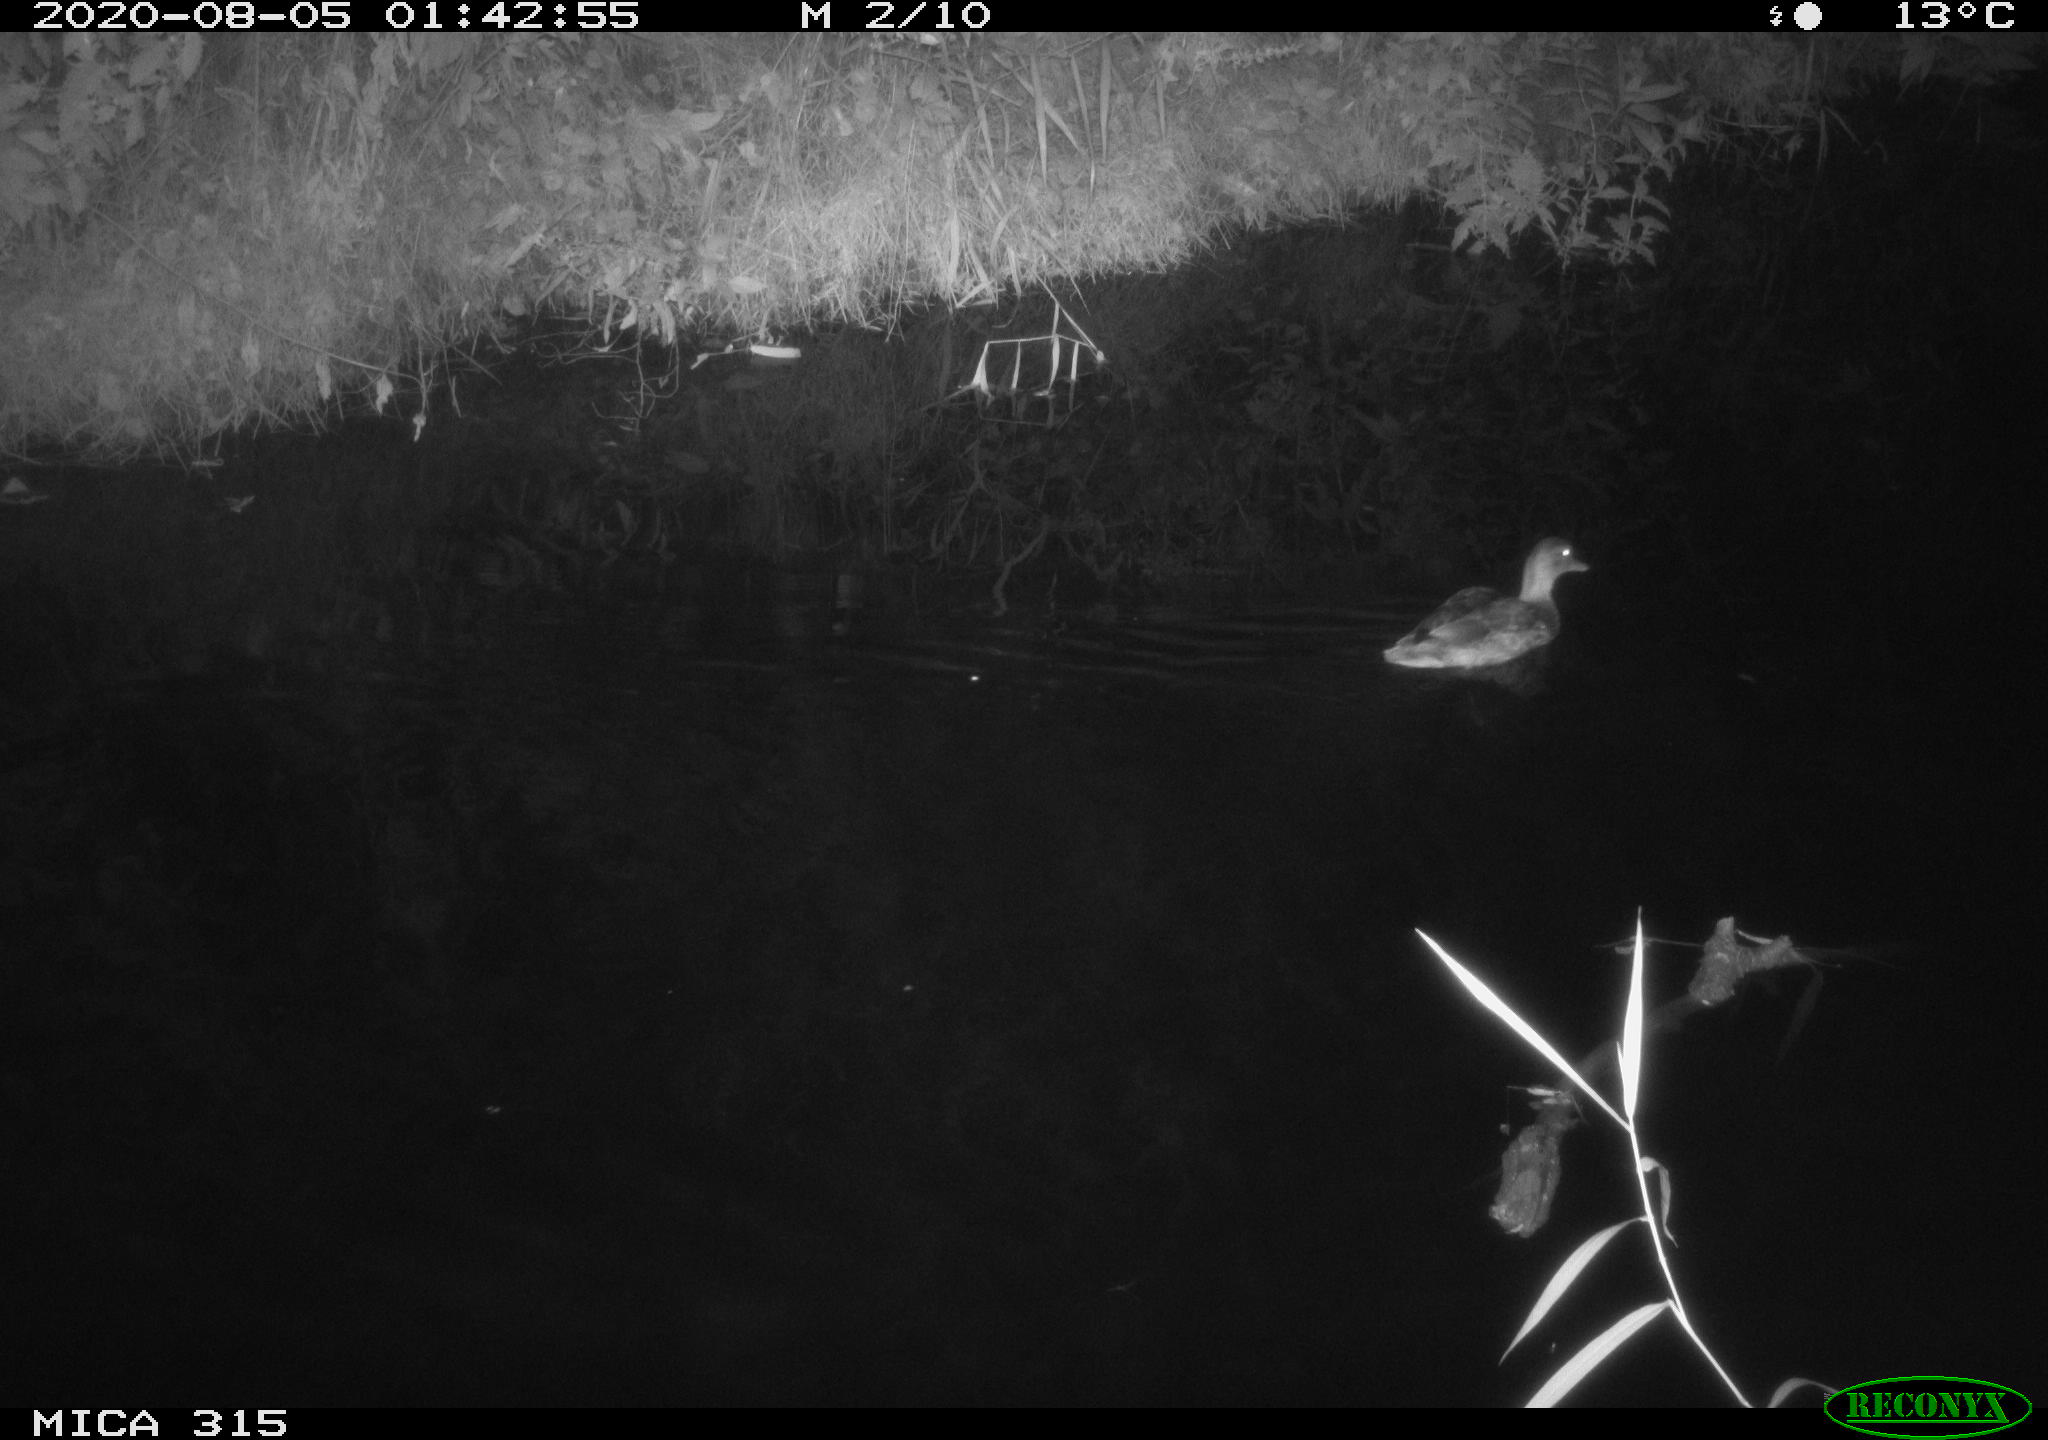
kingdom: Animalia
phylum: Chordata
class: Aves
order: Anseriformes
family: Anatidae
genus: Anas
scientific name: Anas platyrhynchos
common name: Mallard
